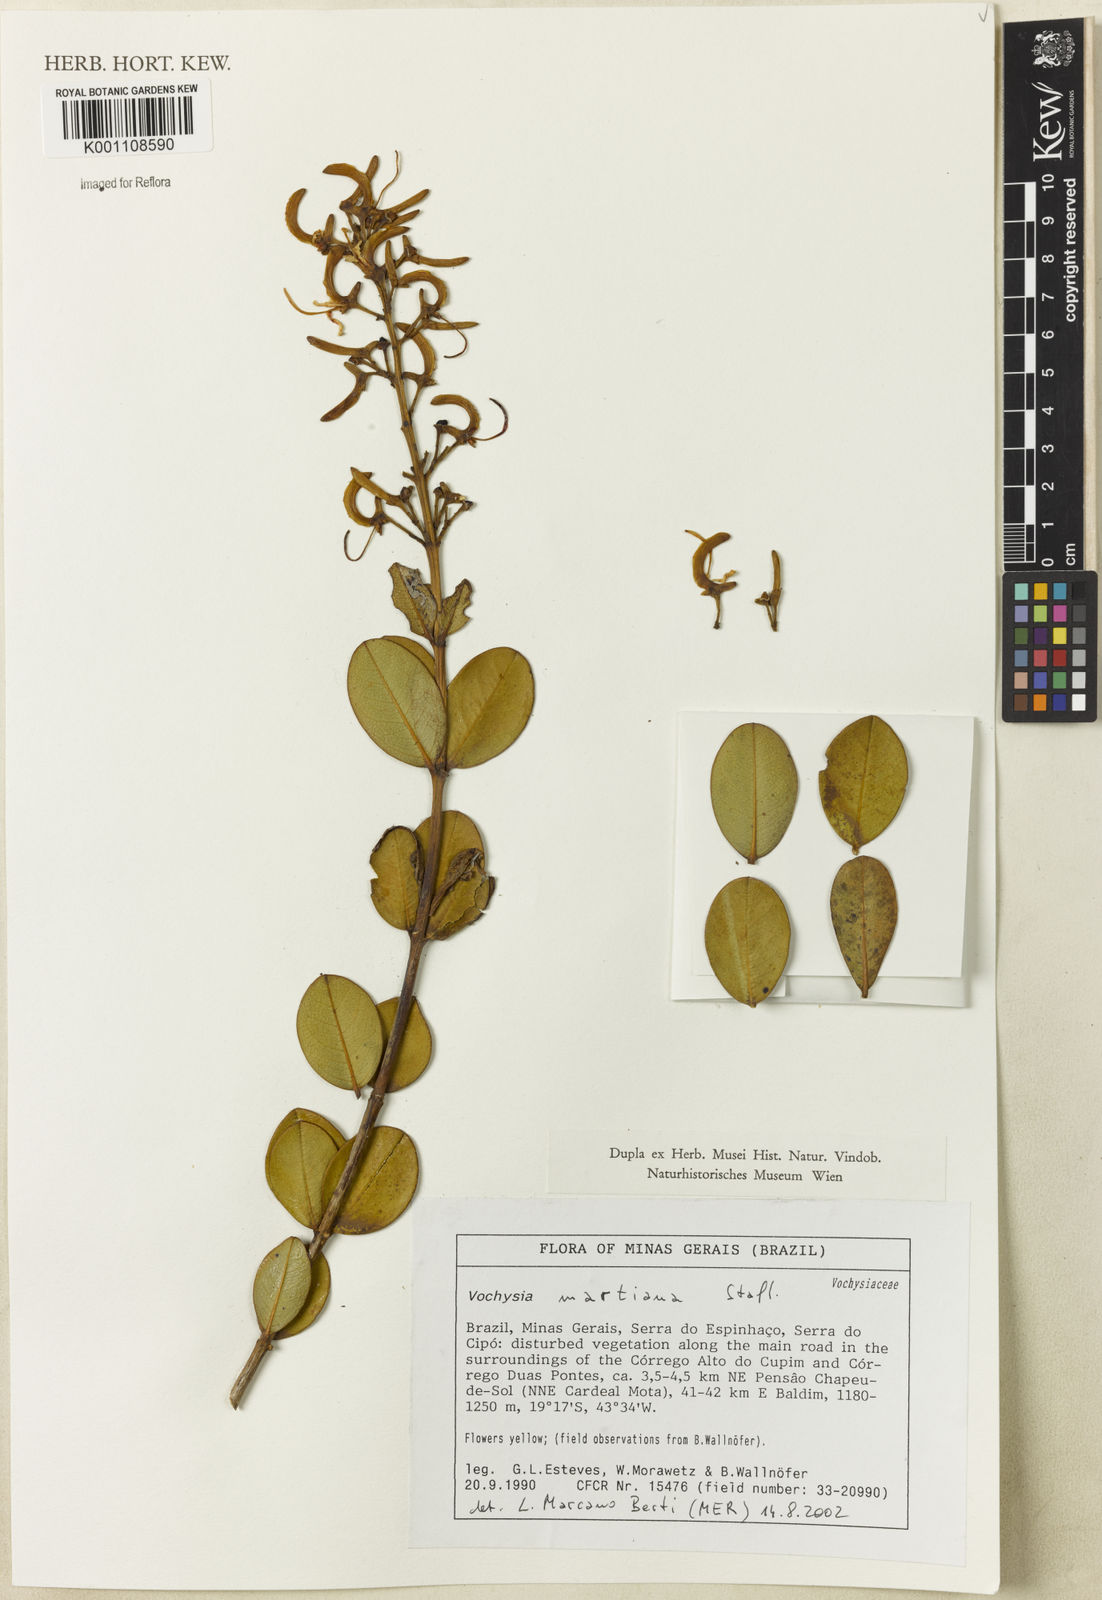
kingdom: Plantae
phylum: Tracheophyta
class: Magnoliopsida
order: Myrtales
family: Vochysiaceae
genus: Vochysia
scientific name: Vochysia obovata
